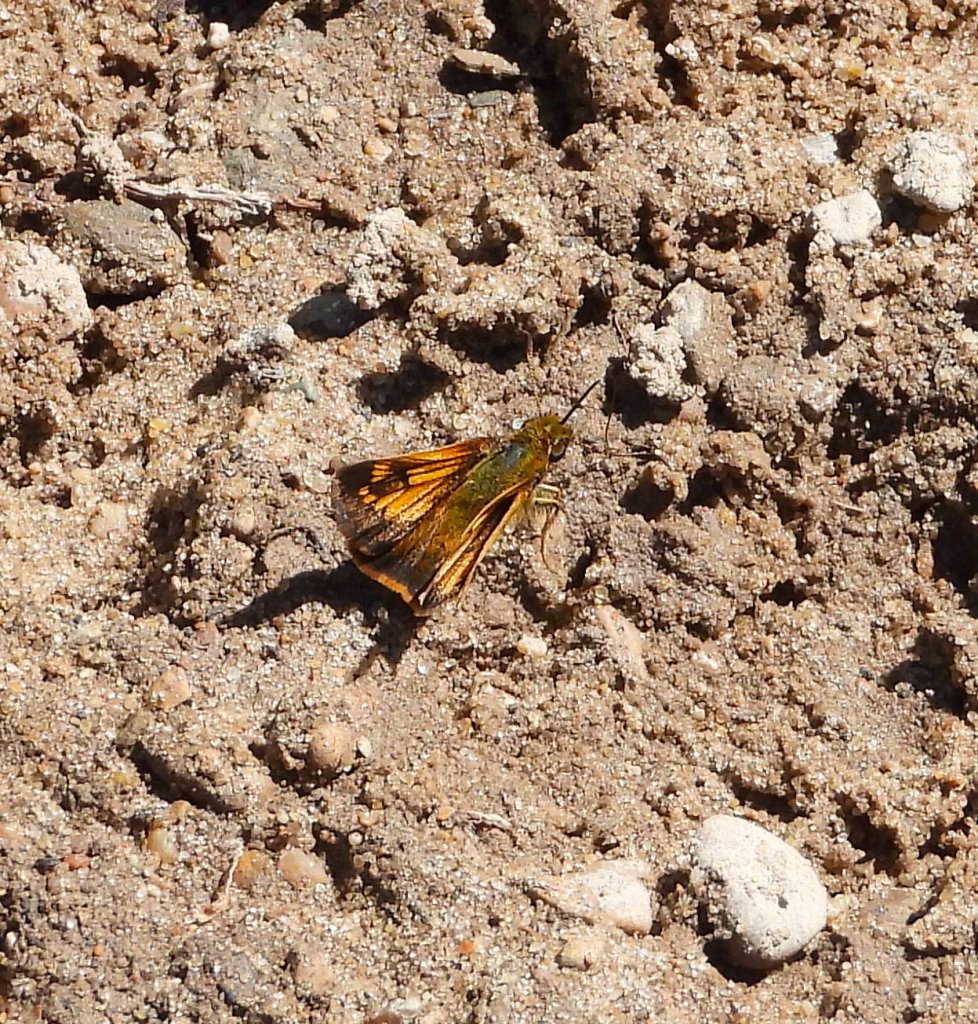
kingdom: Animalia
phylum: Arthropoda
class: Insecta
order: Lepidoptera
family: Hesperiidae
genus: Lon
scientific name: Lon hobomok
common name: Hobomok Skipper
